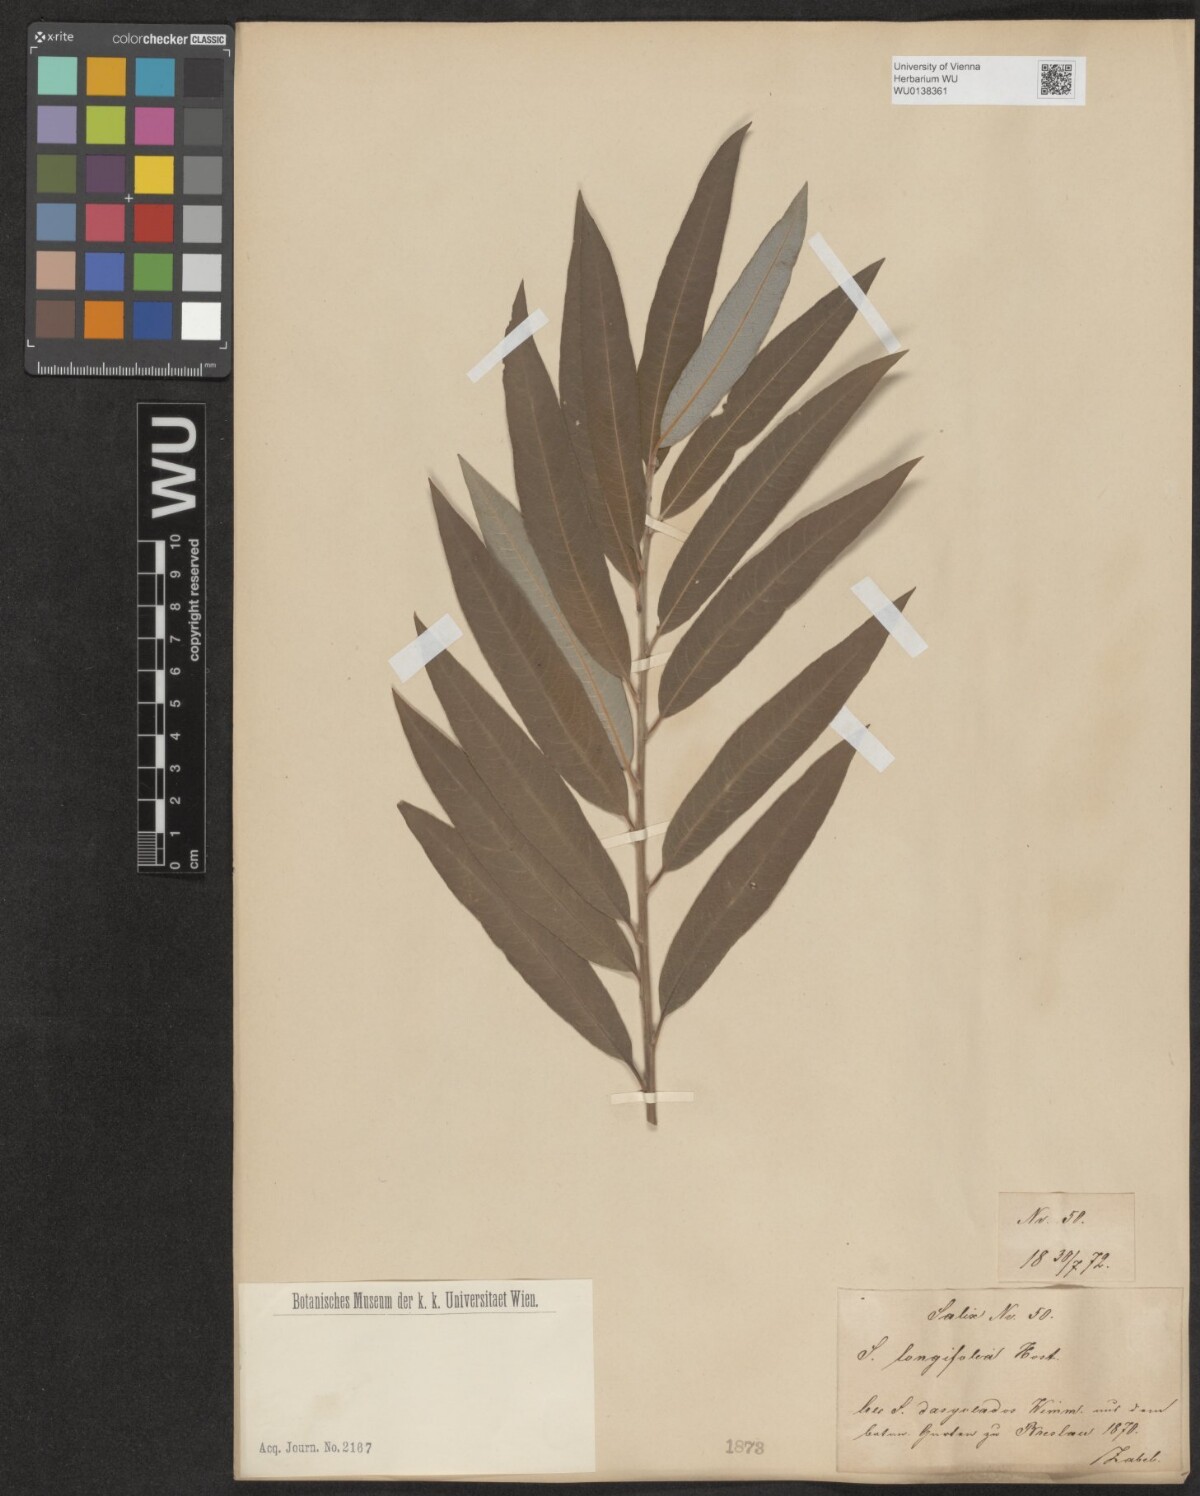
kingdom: Plantae
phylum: Tracheophyta
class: Magnoliopsida
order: Malpighiales
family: Salicaceae
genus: Salix
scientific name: Salix interior
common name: Sandbar willow
